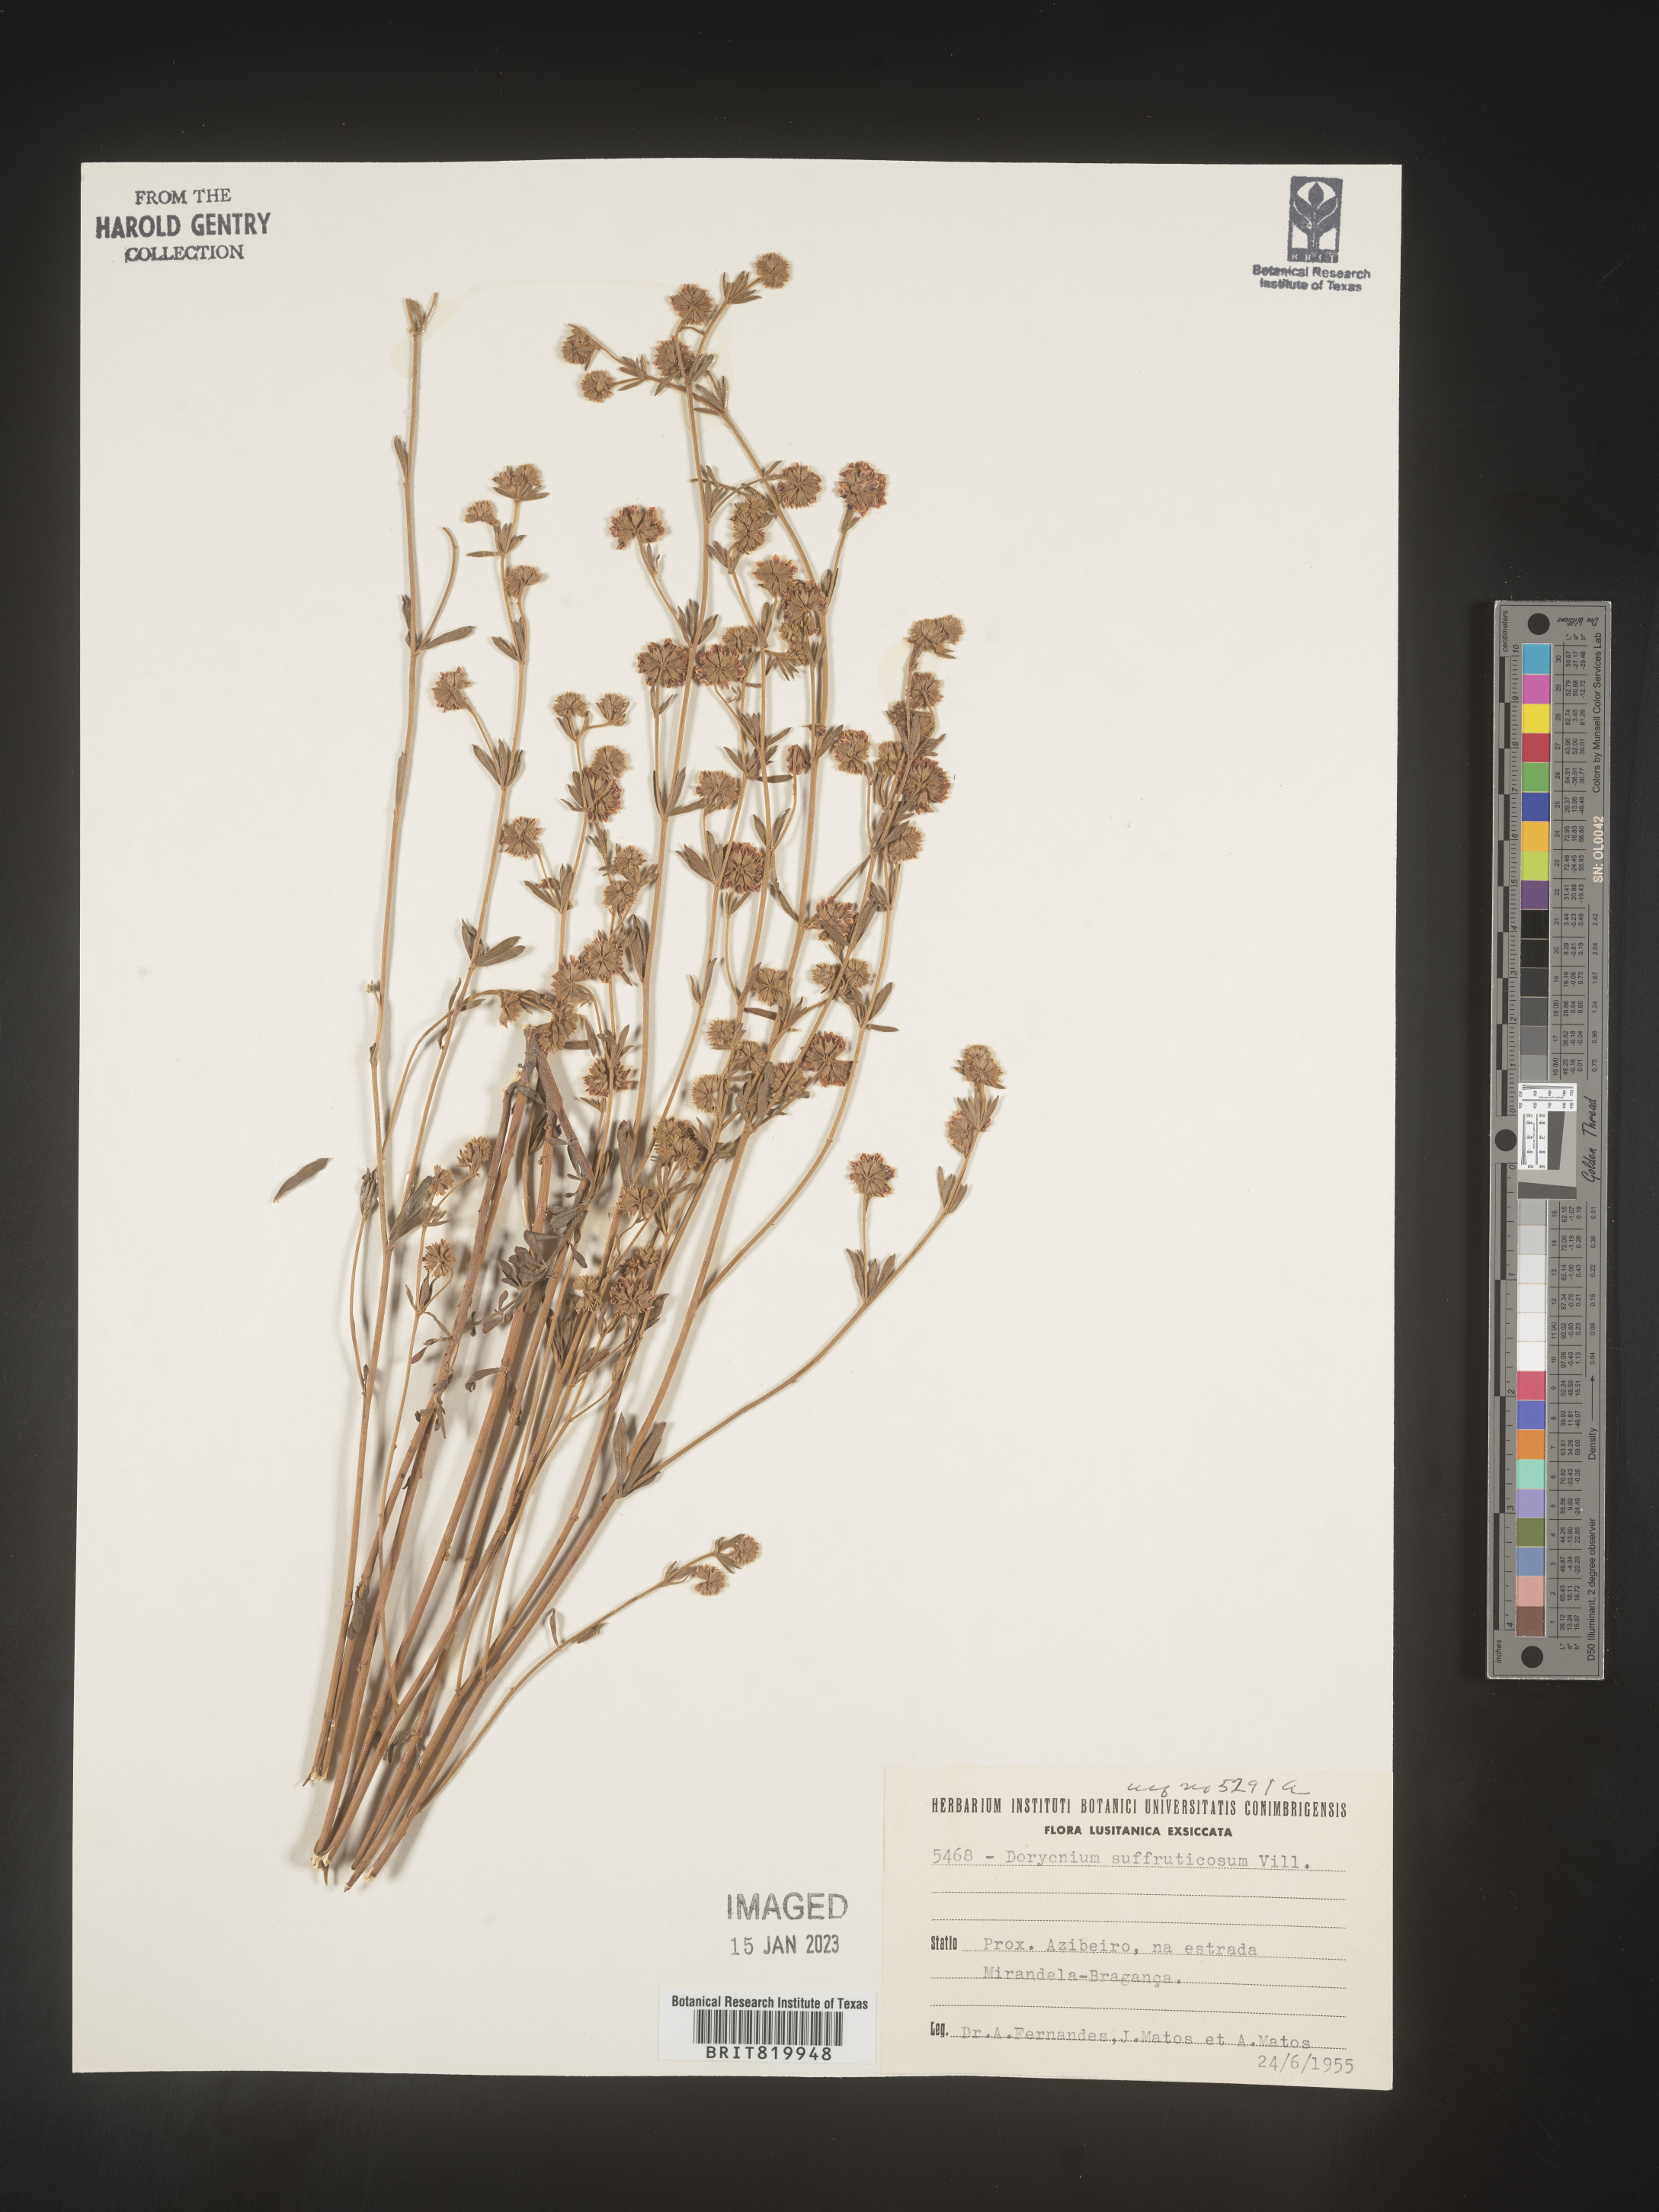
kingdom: Plantae
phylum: Tracheophyta
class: Magnoliopsida
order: Fabales
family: Fabaceae
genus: Lotus
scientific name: Lotus
